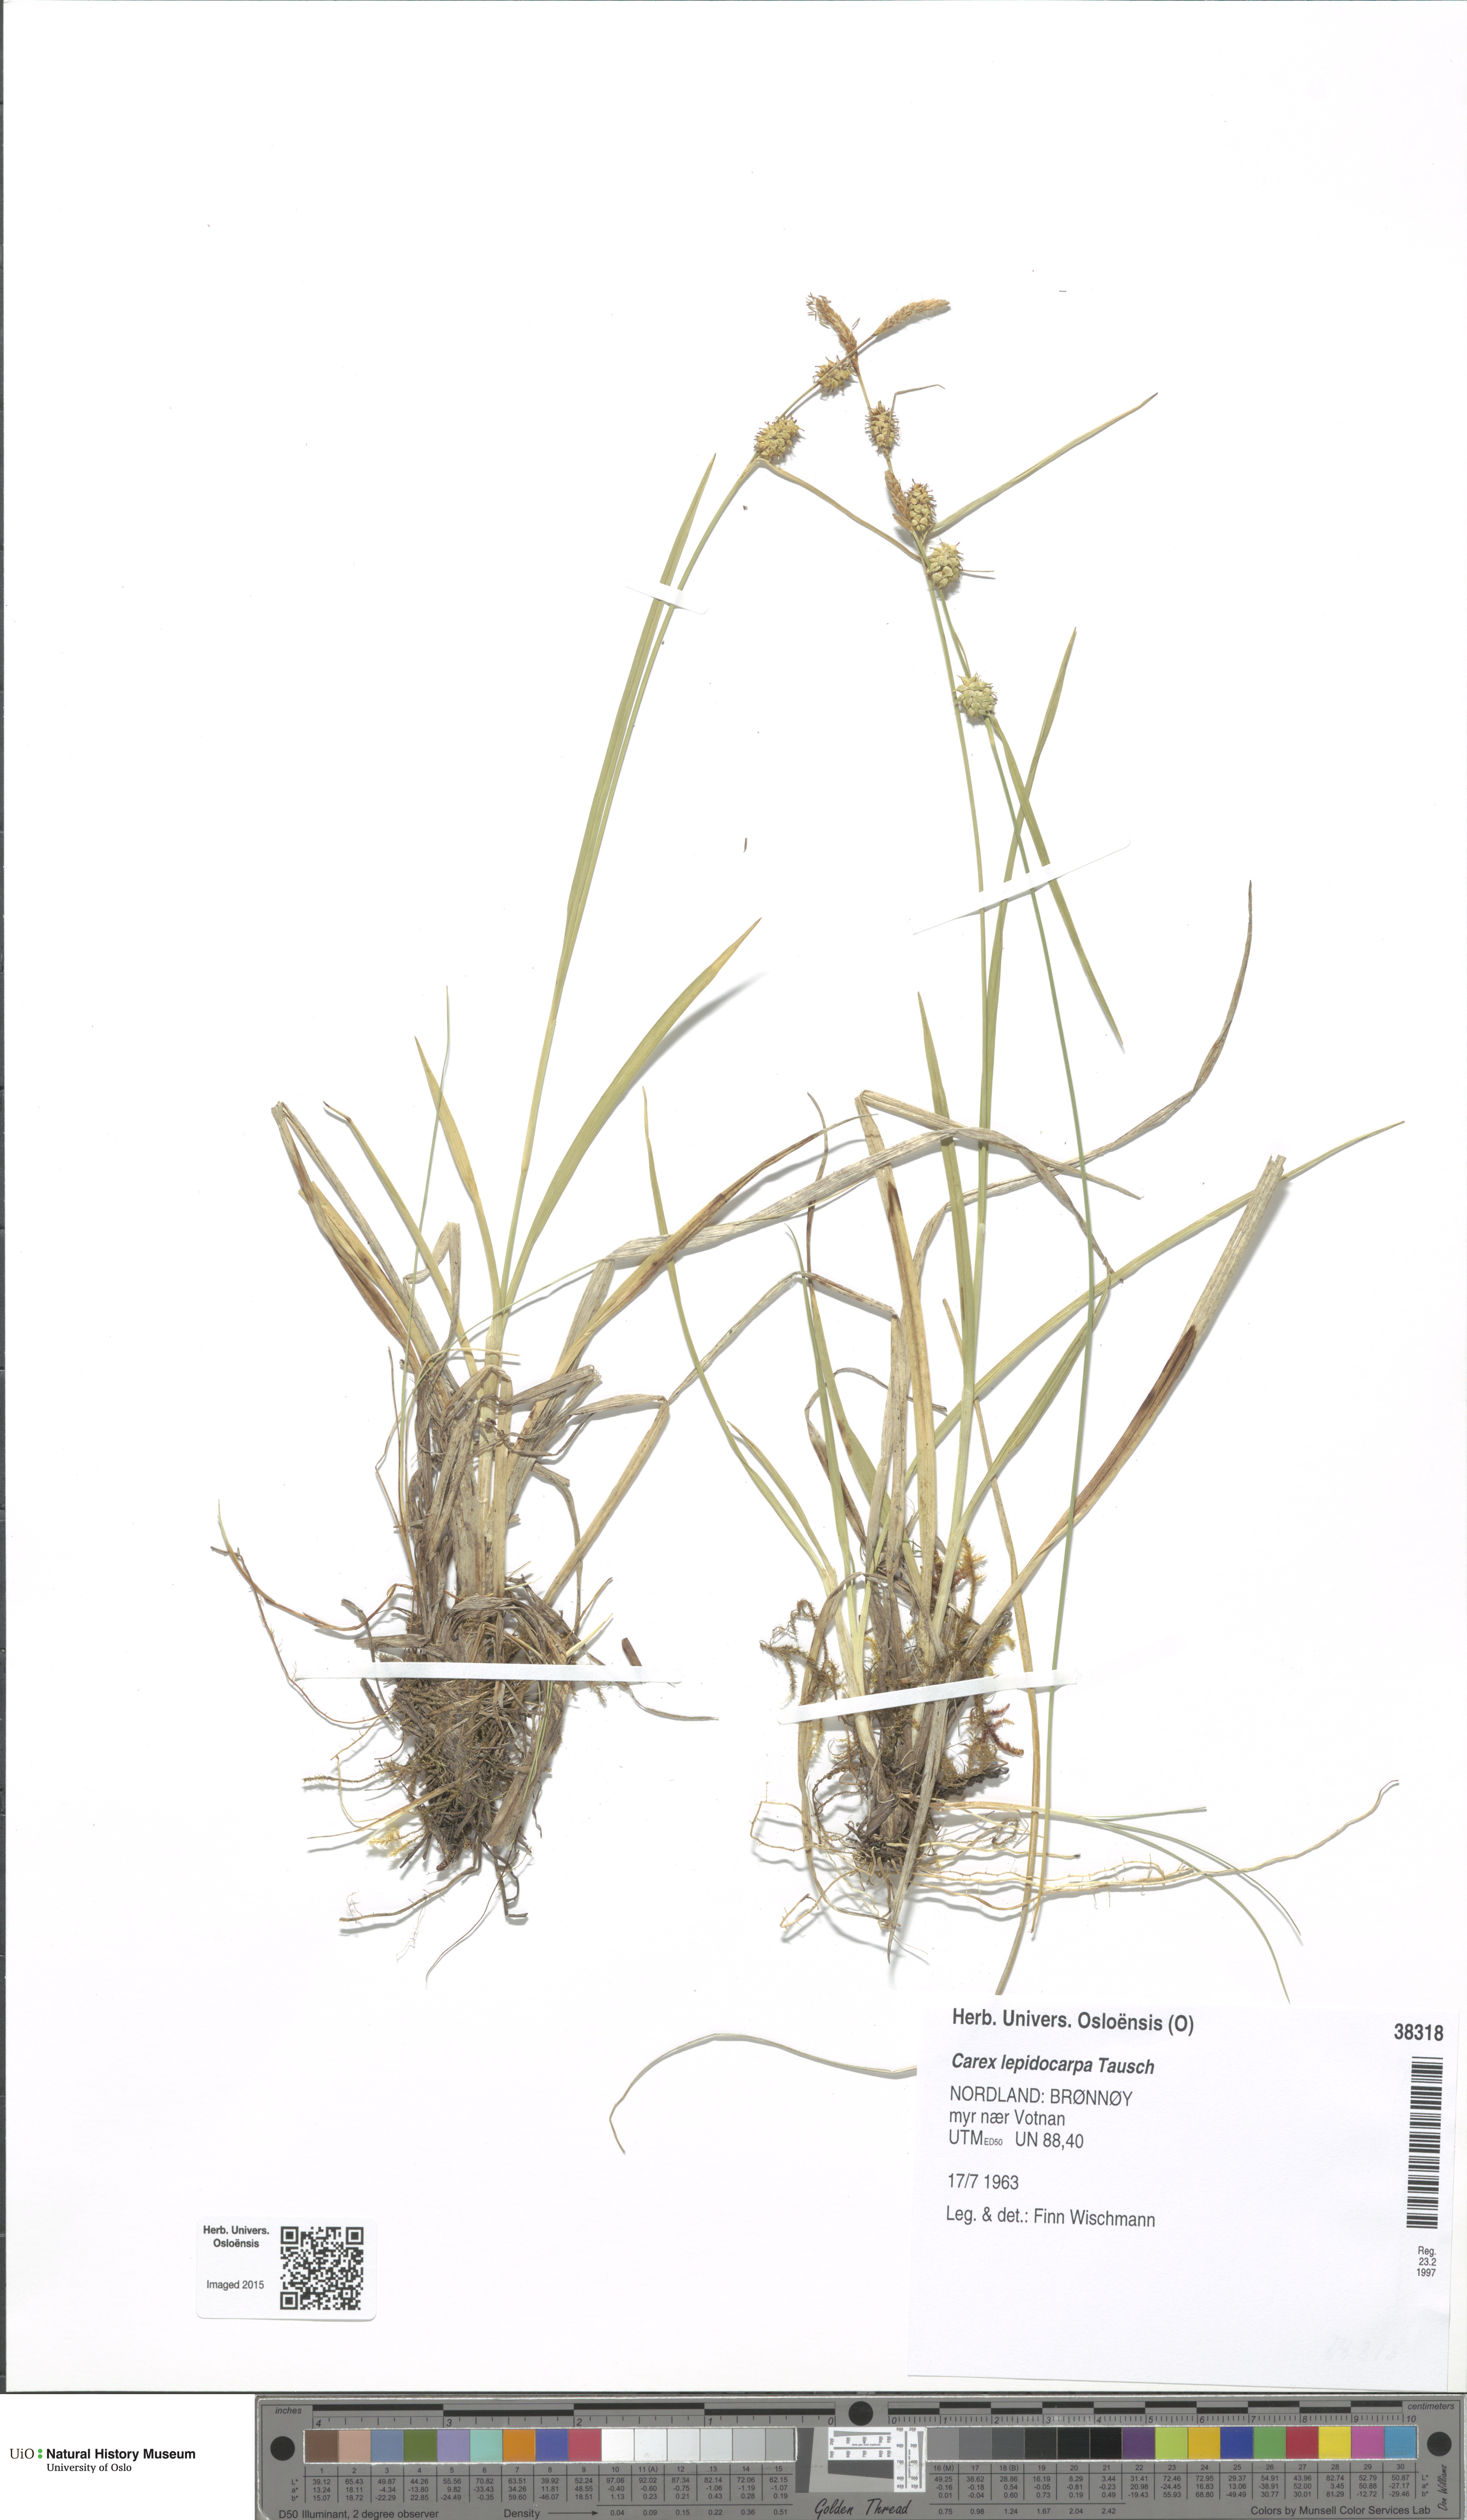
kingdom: Plantae
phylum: Tracheophyta
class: Liliopsida
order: Poales
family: Cyperaceae
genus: Carex
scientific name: Carex lepidocarpa
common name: Long-stalked yellow-sedge
